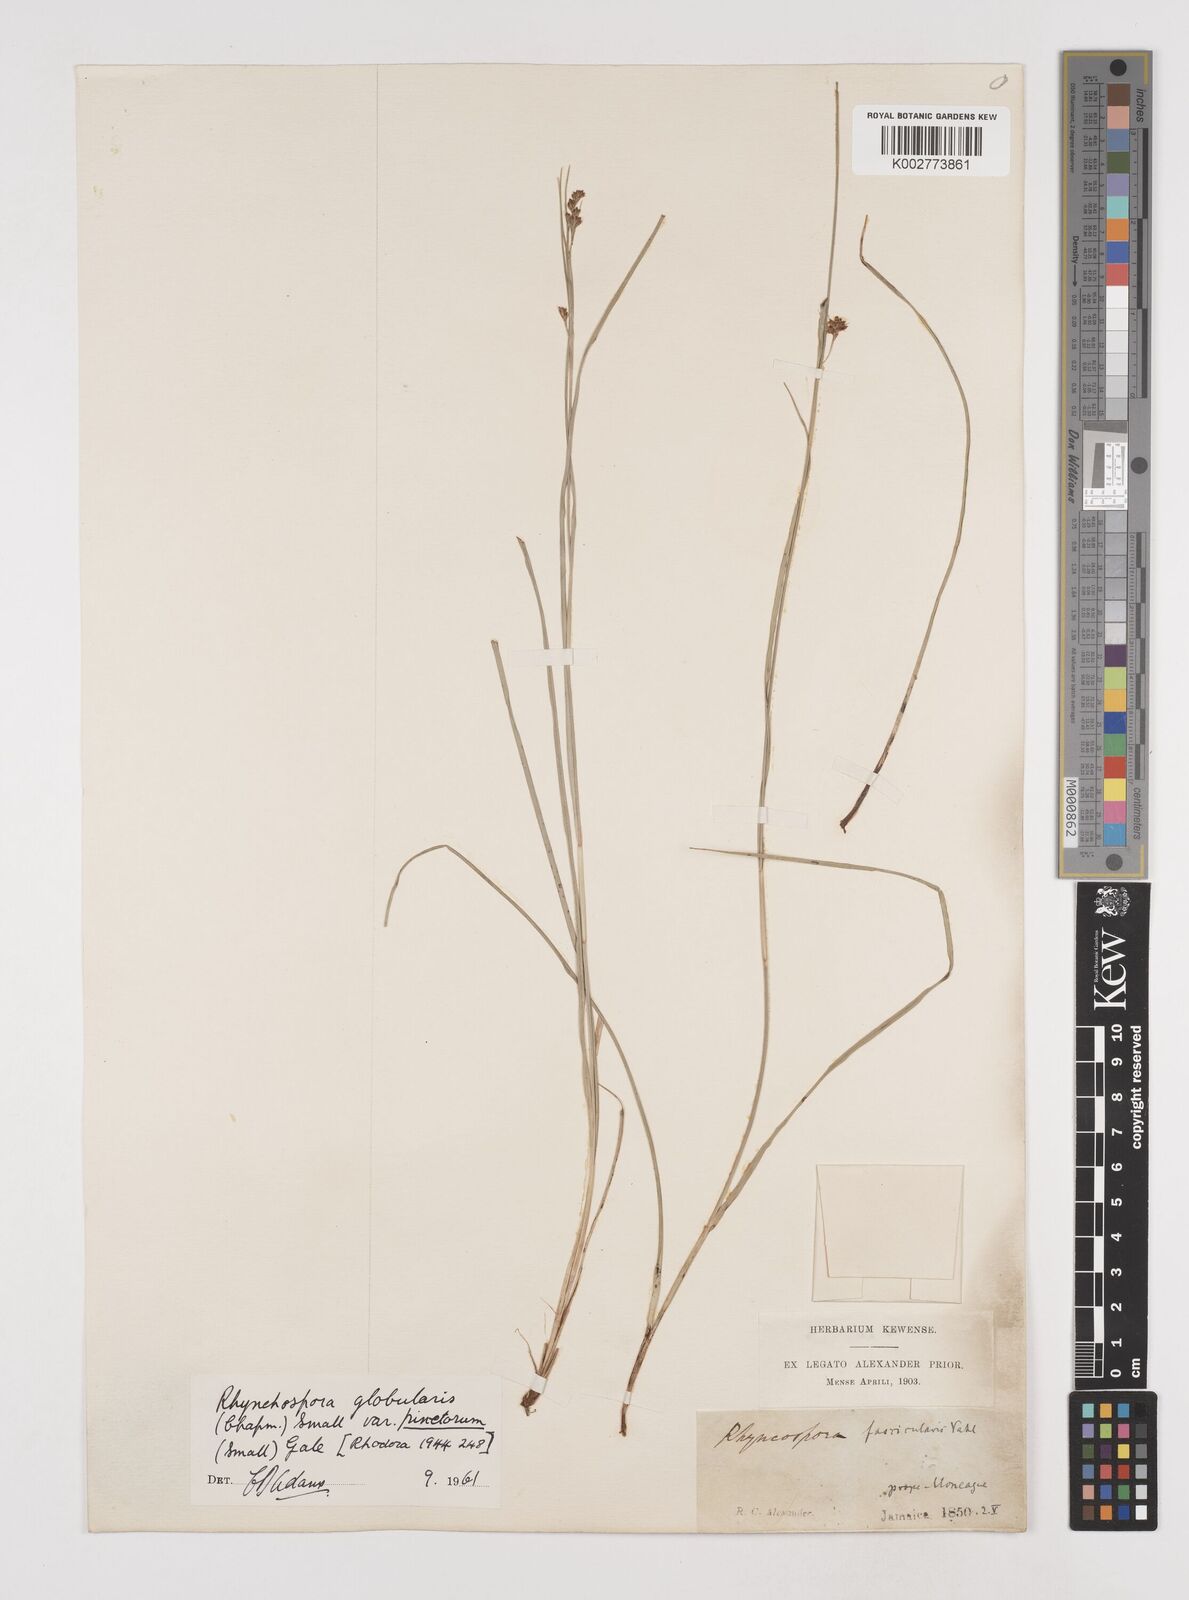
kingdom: Plantae
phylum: Tracheophyta
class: Liliopsida
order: Poales
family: Cyperaceae
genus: Scirpus
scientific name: Scirpus polyphyllus
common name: Leafy bulrush
